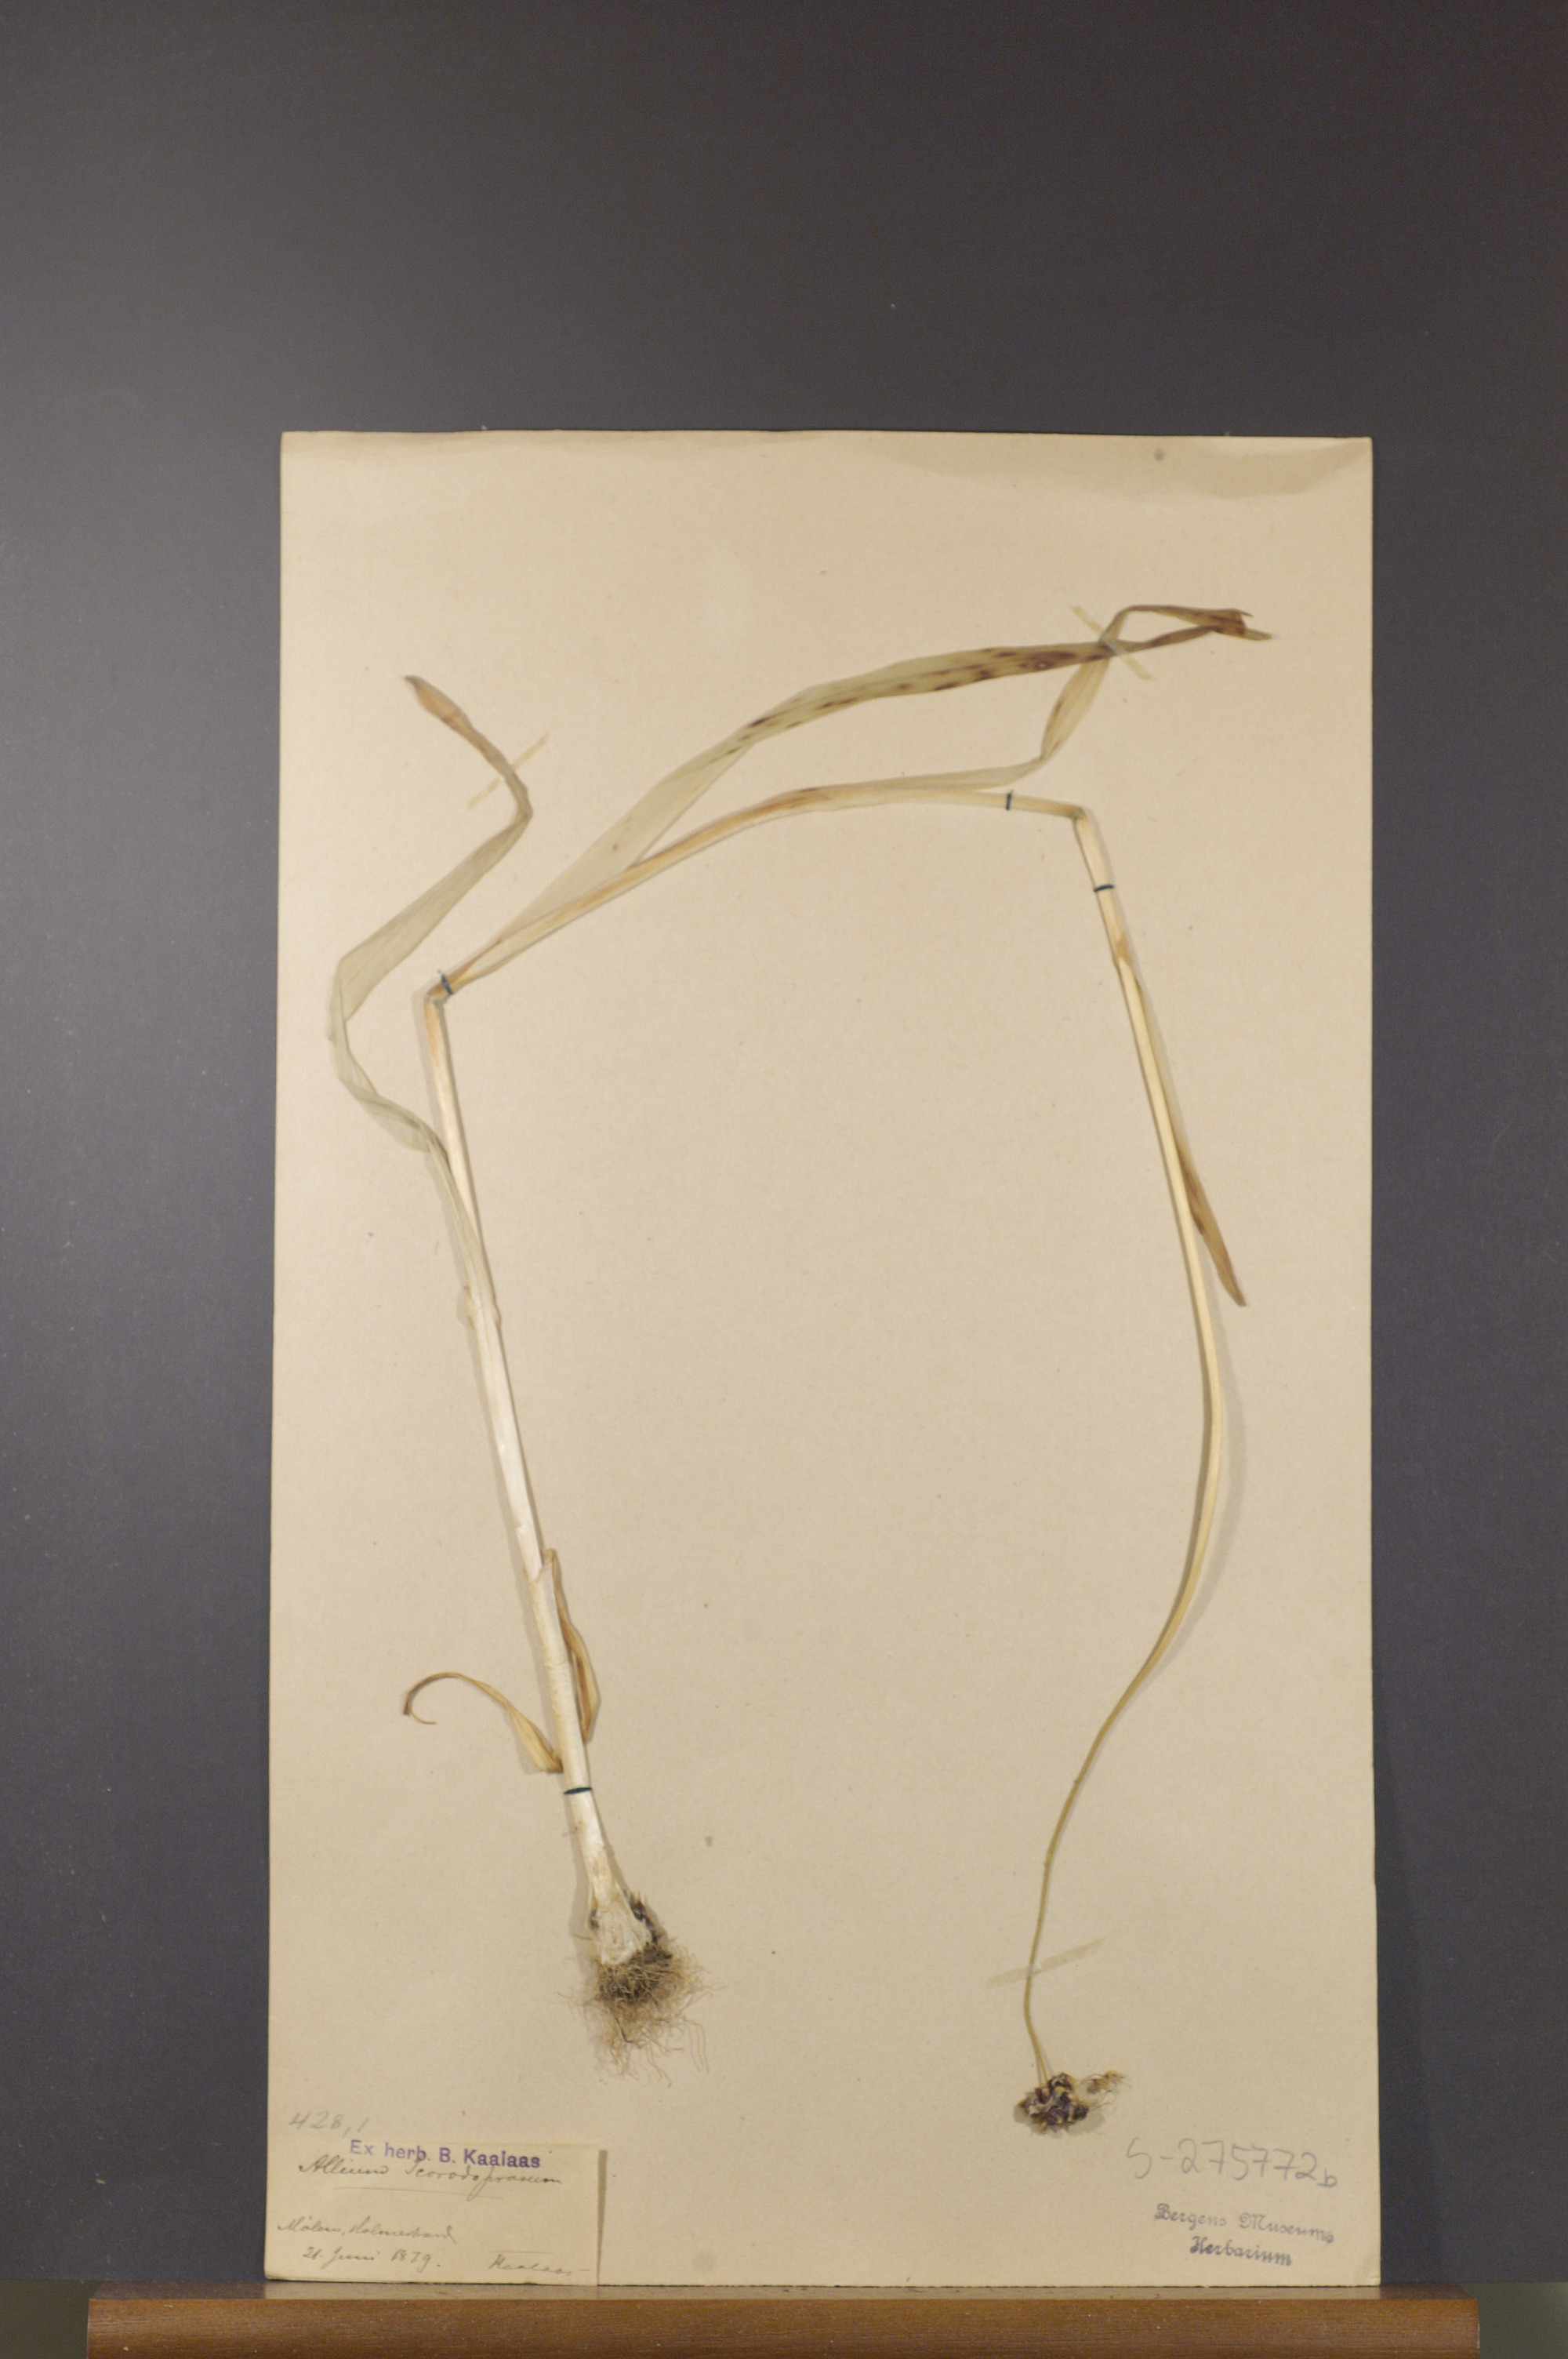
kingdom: Plantae
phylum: Tracheophyta
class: Liliopsida
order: Asparagales
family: Amaryllidaceae
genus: Allium
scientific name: Allium scorodoprasum
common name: Sand leek
